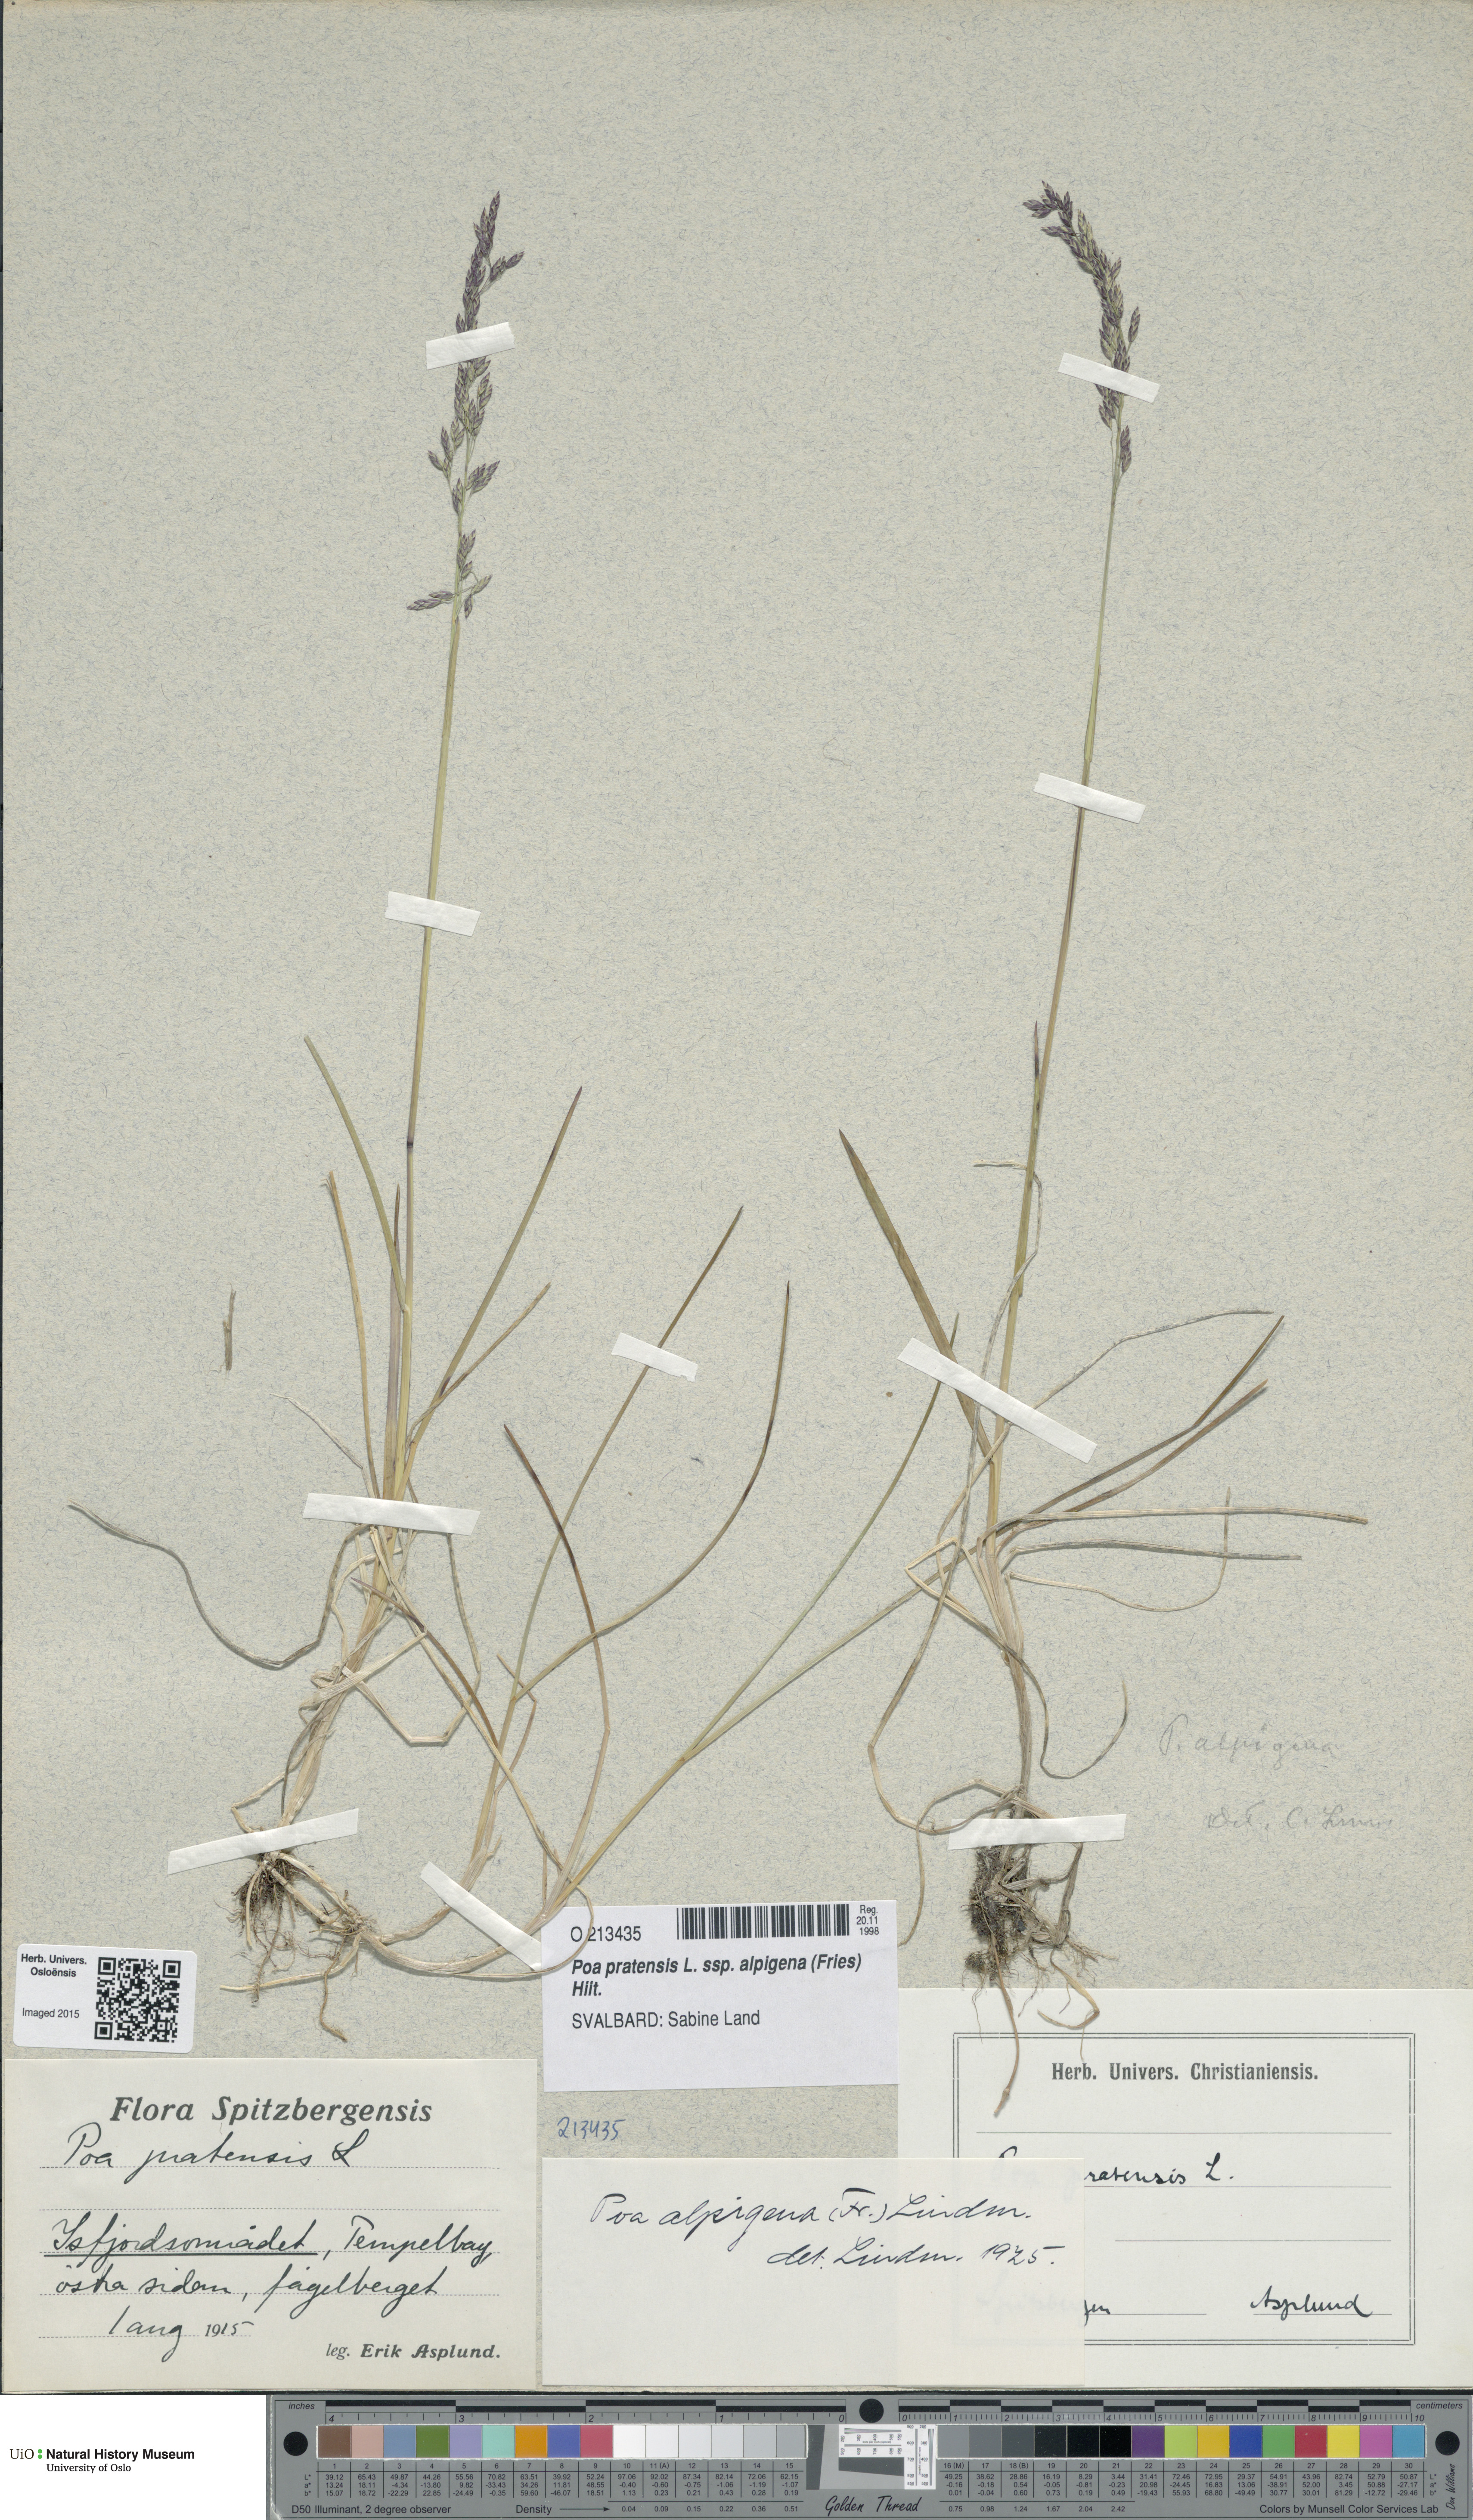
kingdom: Plantae
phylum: Tracheophyta
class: Liliopsida
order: Poales
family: Poaceae
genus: Poa
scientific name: Poa alpigena
